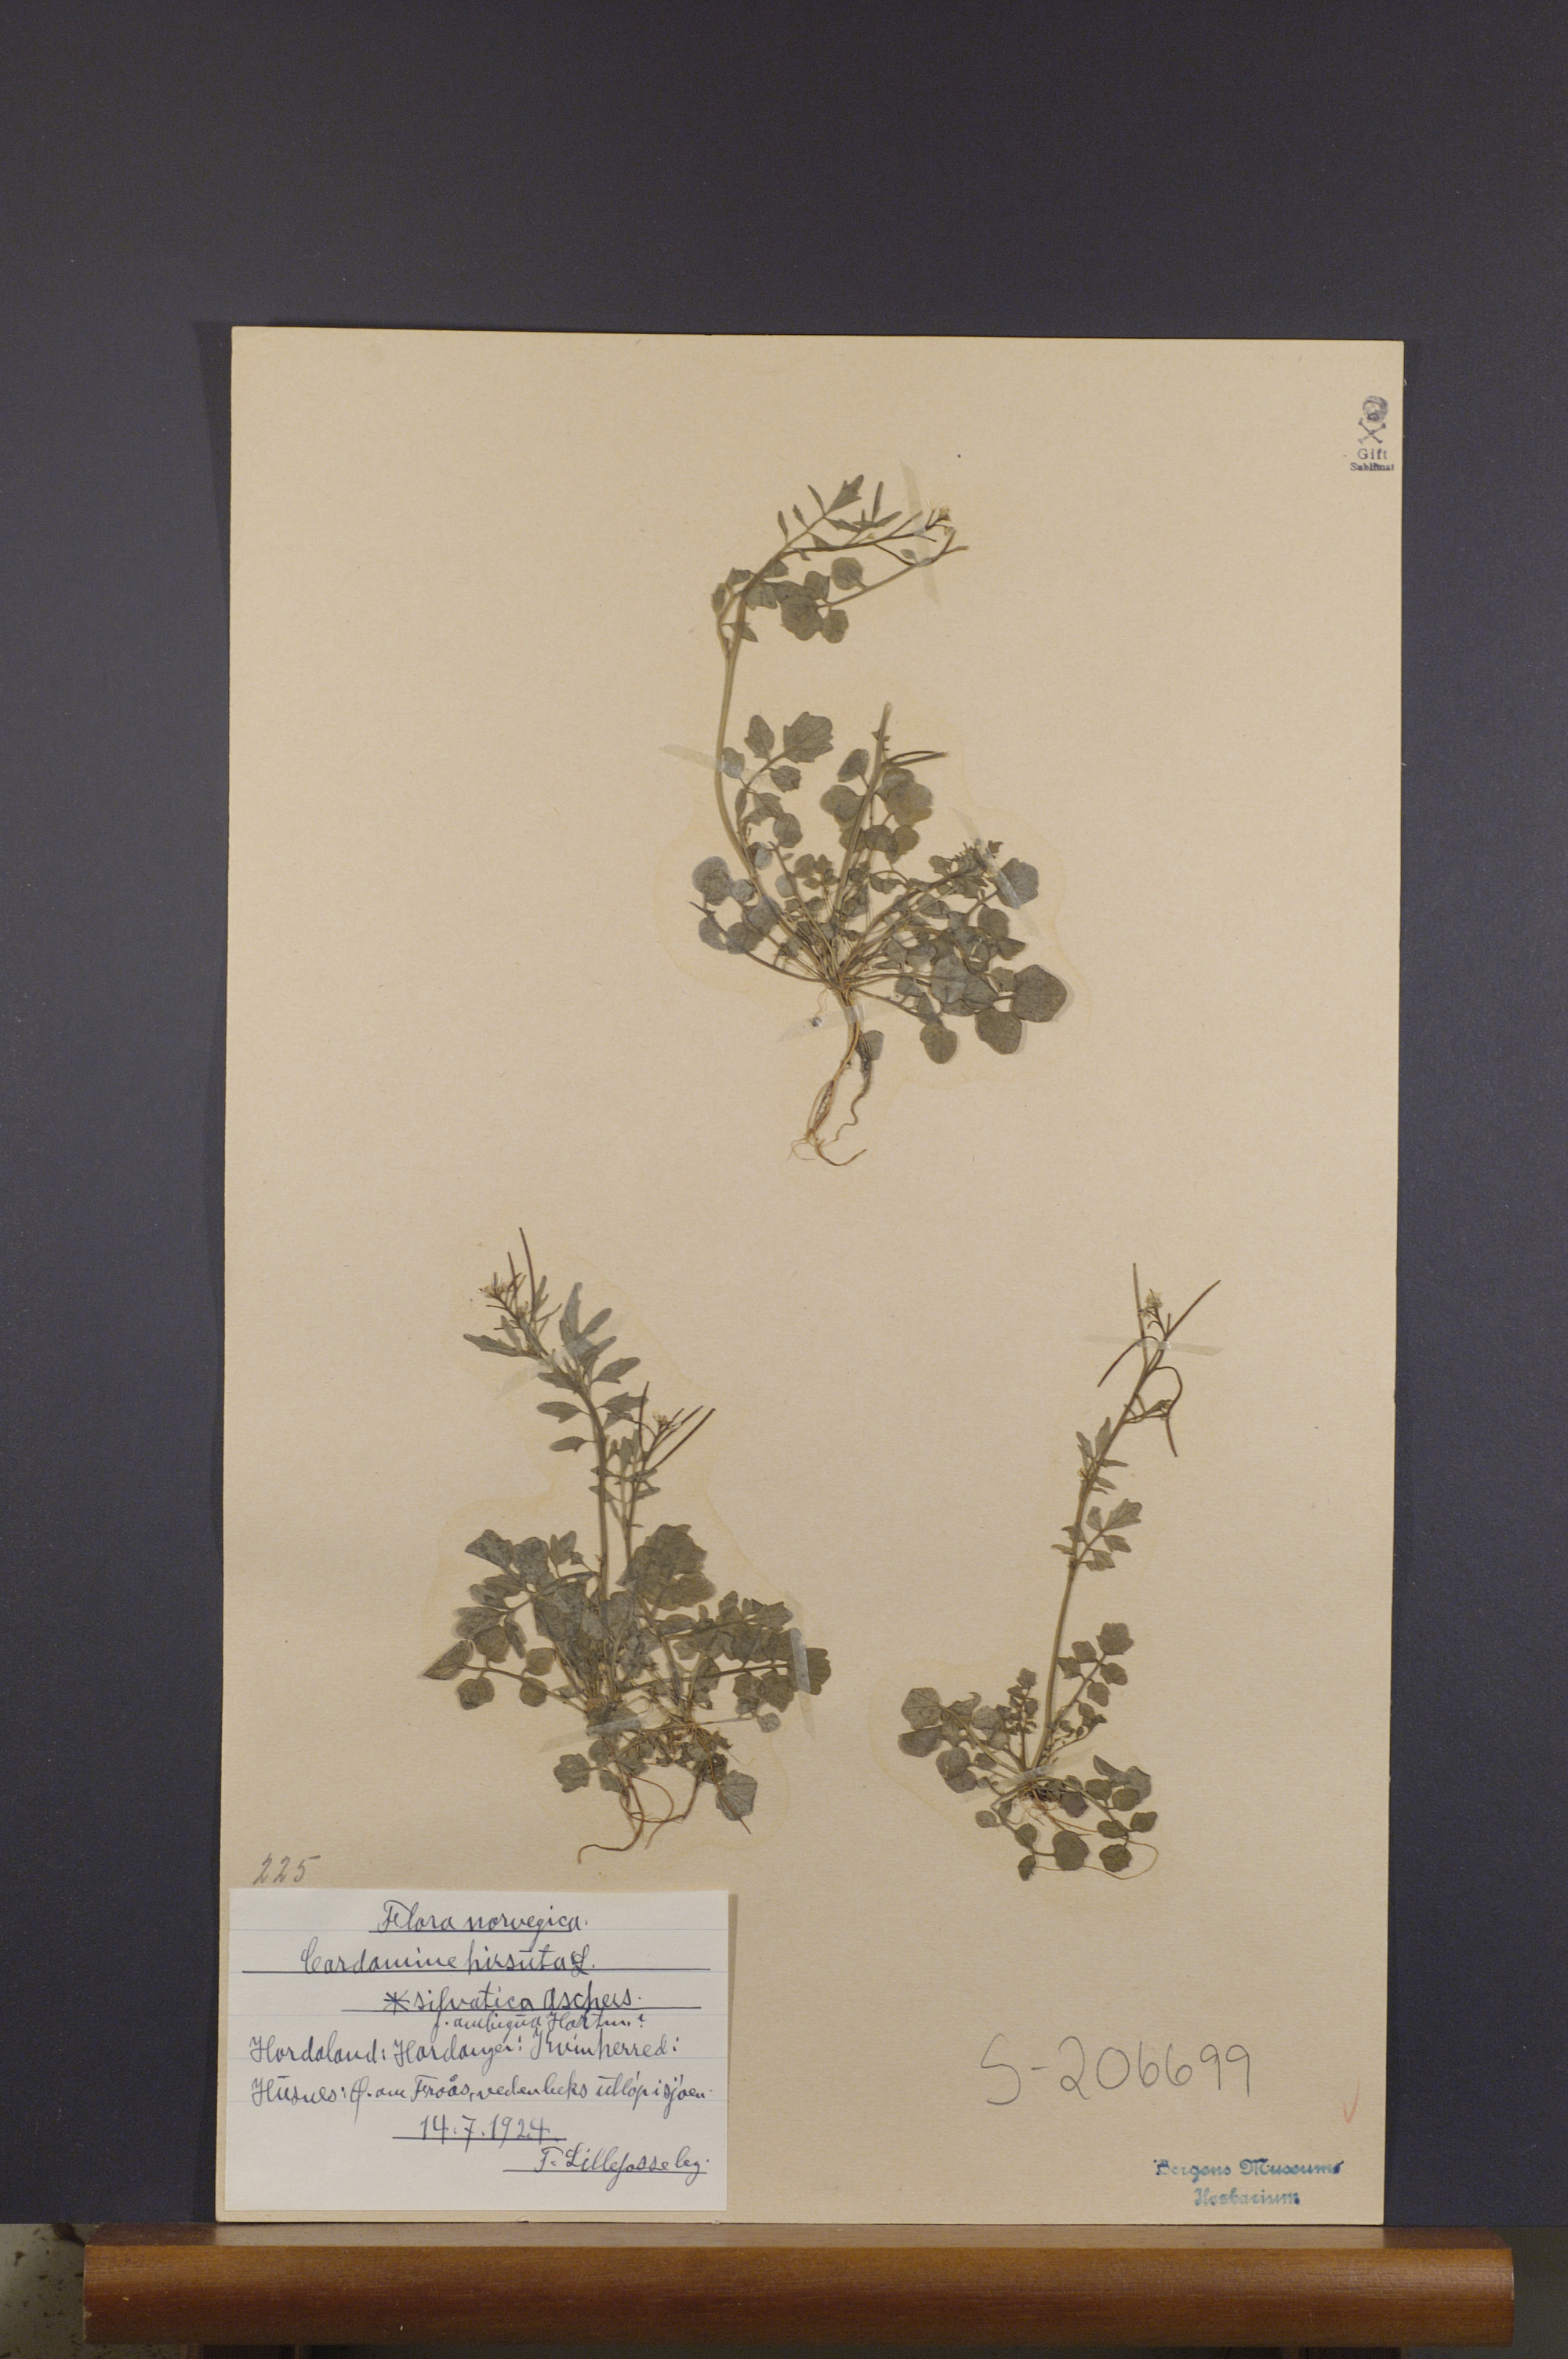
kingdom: Plantae
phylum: Tracheophyta
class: Magnoliopsida
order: Brassicales
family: Brassicaceae
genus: Cardamine
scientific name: Cardamine flexuosa
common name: Woodland bittercress
